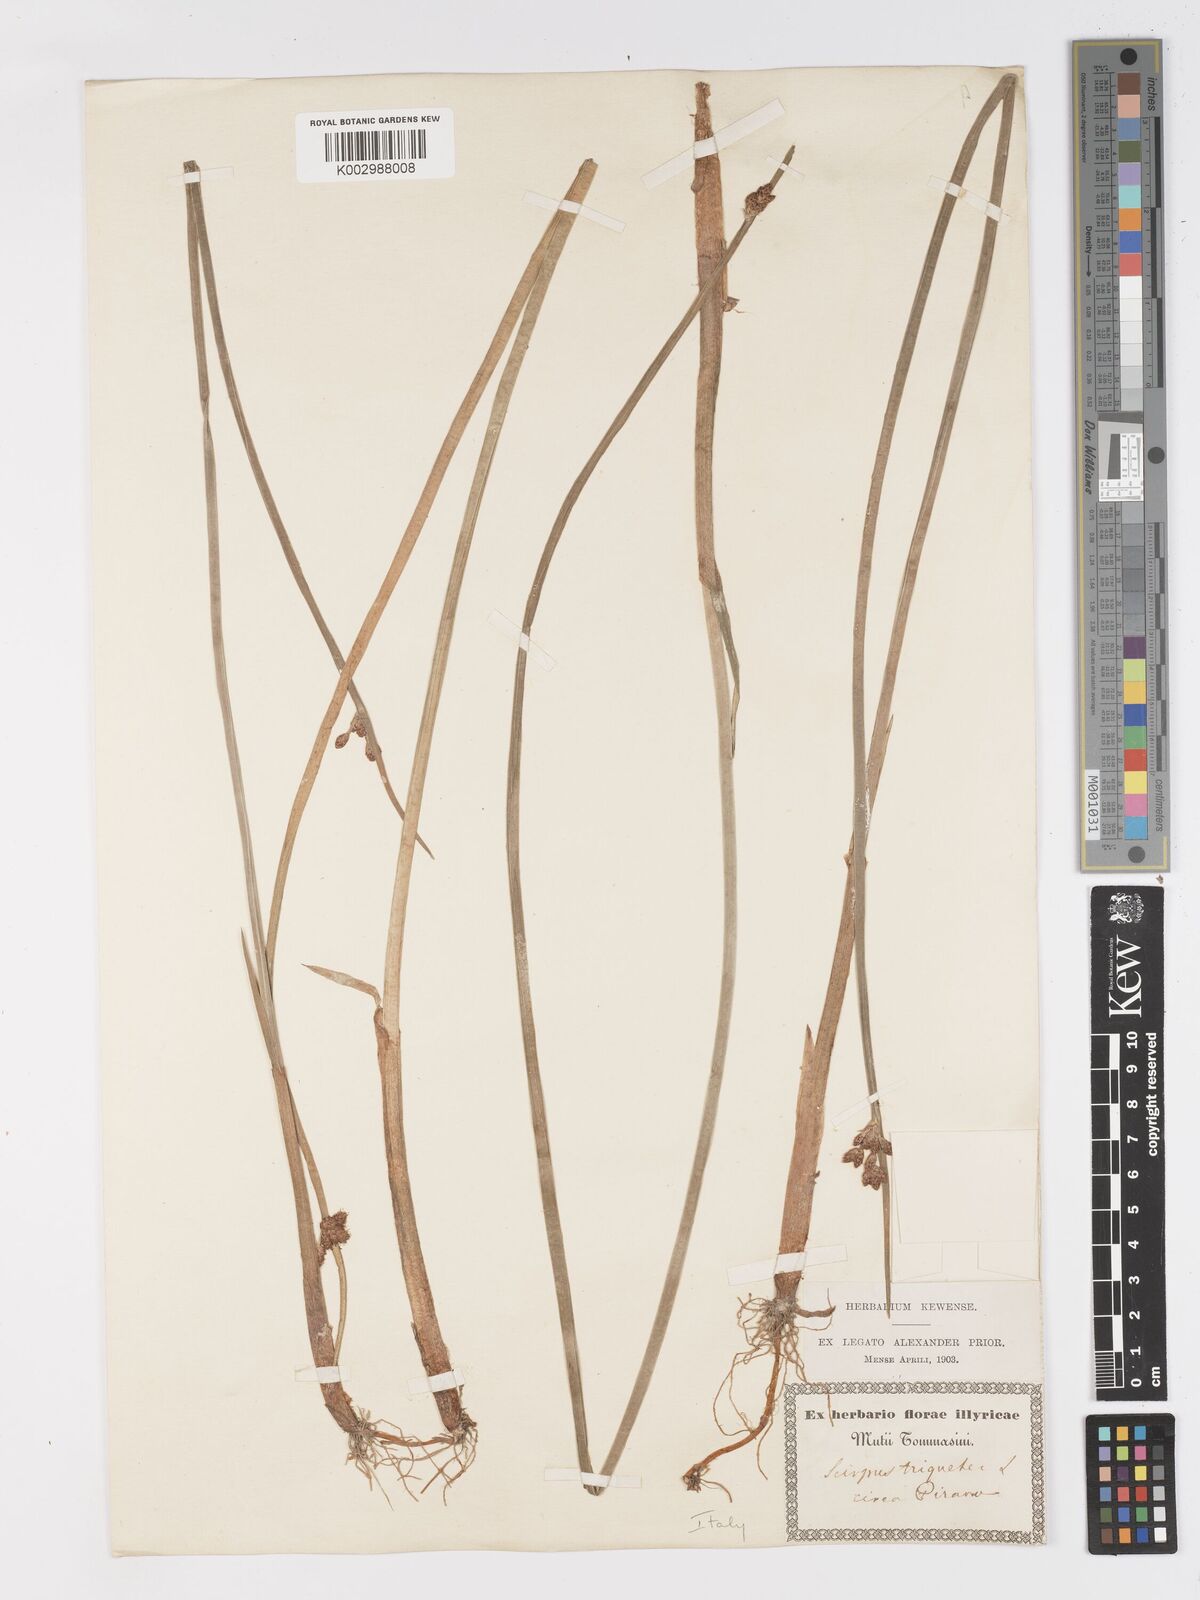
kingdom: Plantae
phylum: Tracheophyta
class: Liliopsida
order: Poales
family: Cyperaceae
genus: Schoenoplectus
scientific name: Schoenoplectus triqueter
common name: Triangular club-rush
